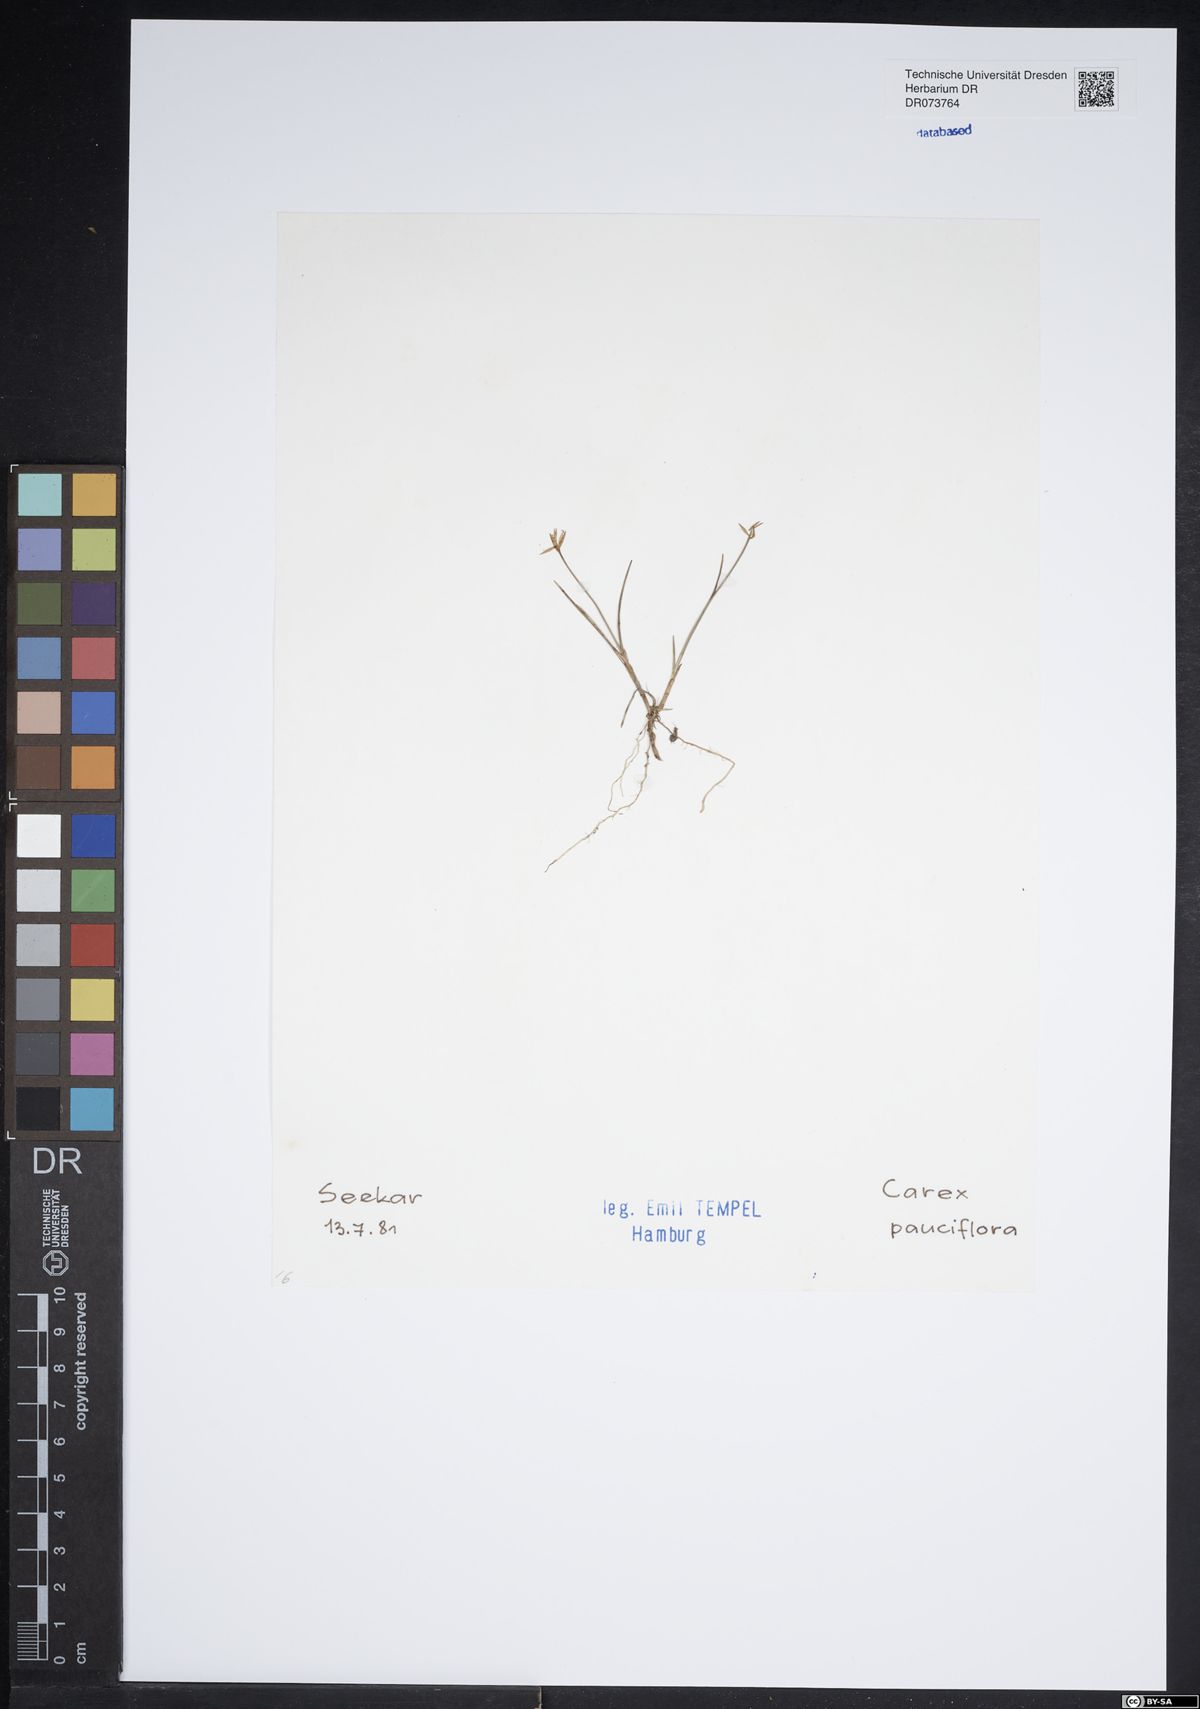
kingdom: Plantae
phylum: Tracheophyta
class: Liliopsida
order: Poales
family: Cyperaceae
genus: Carex
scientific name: Carex pauciflora
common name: Few-flowered sedge
